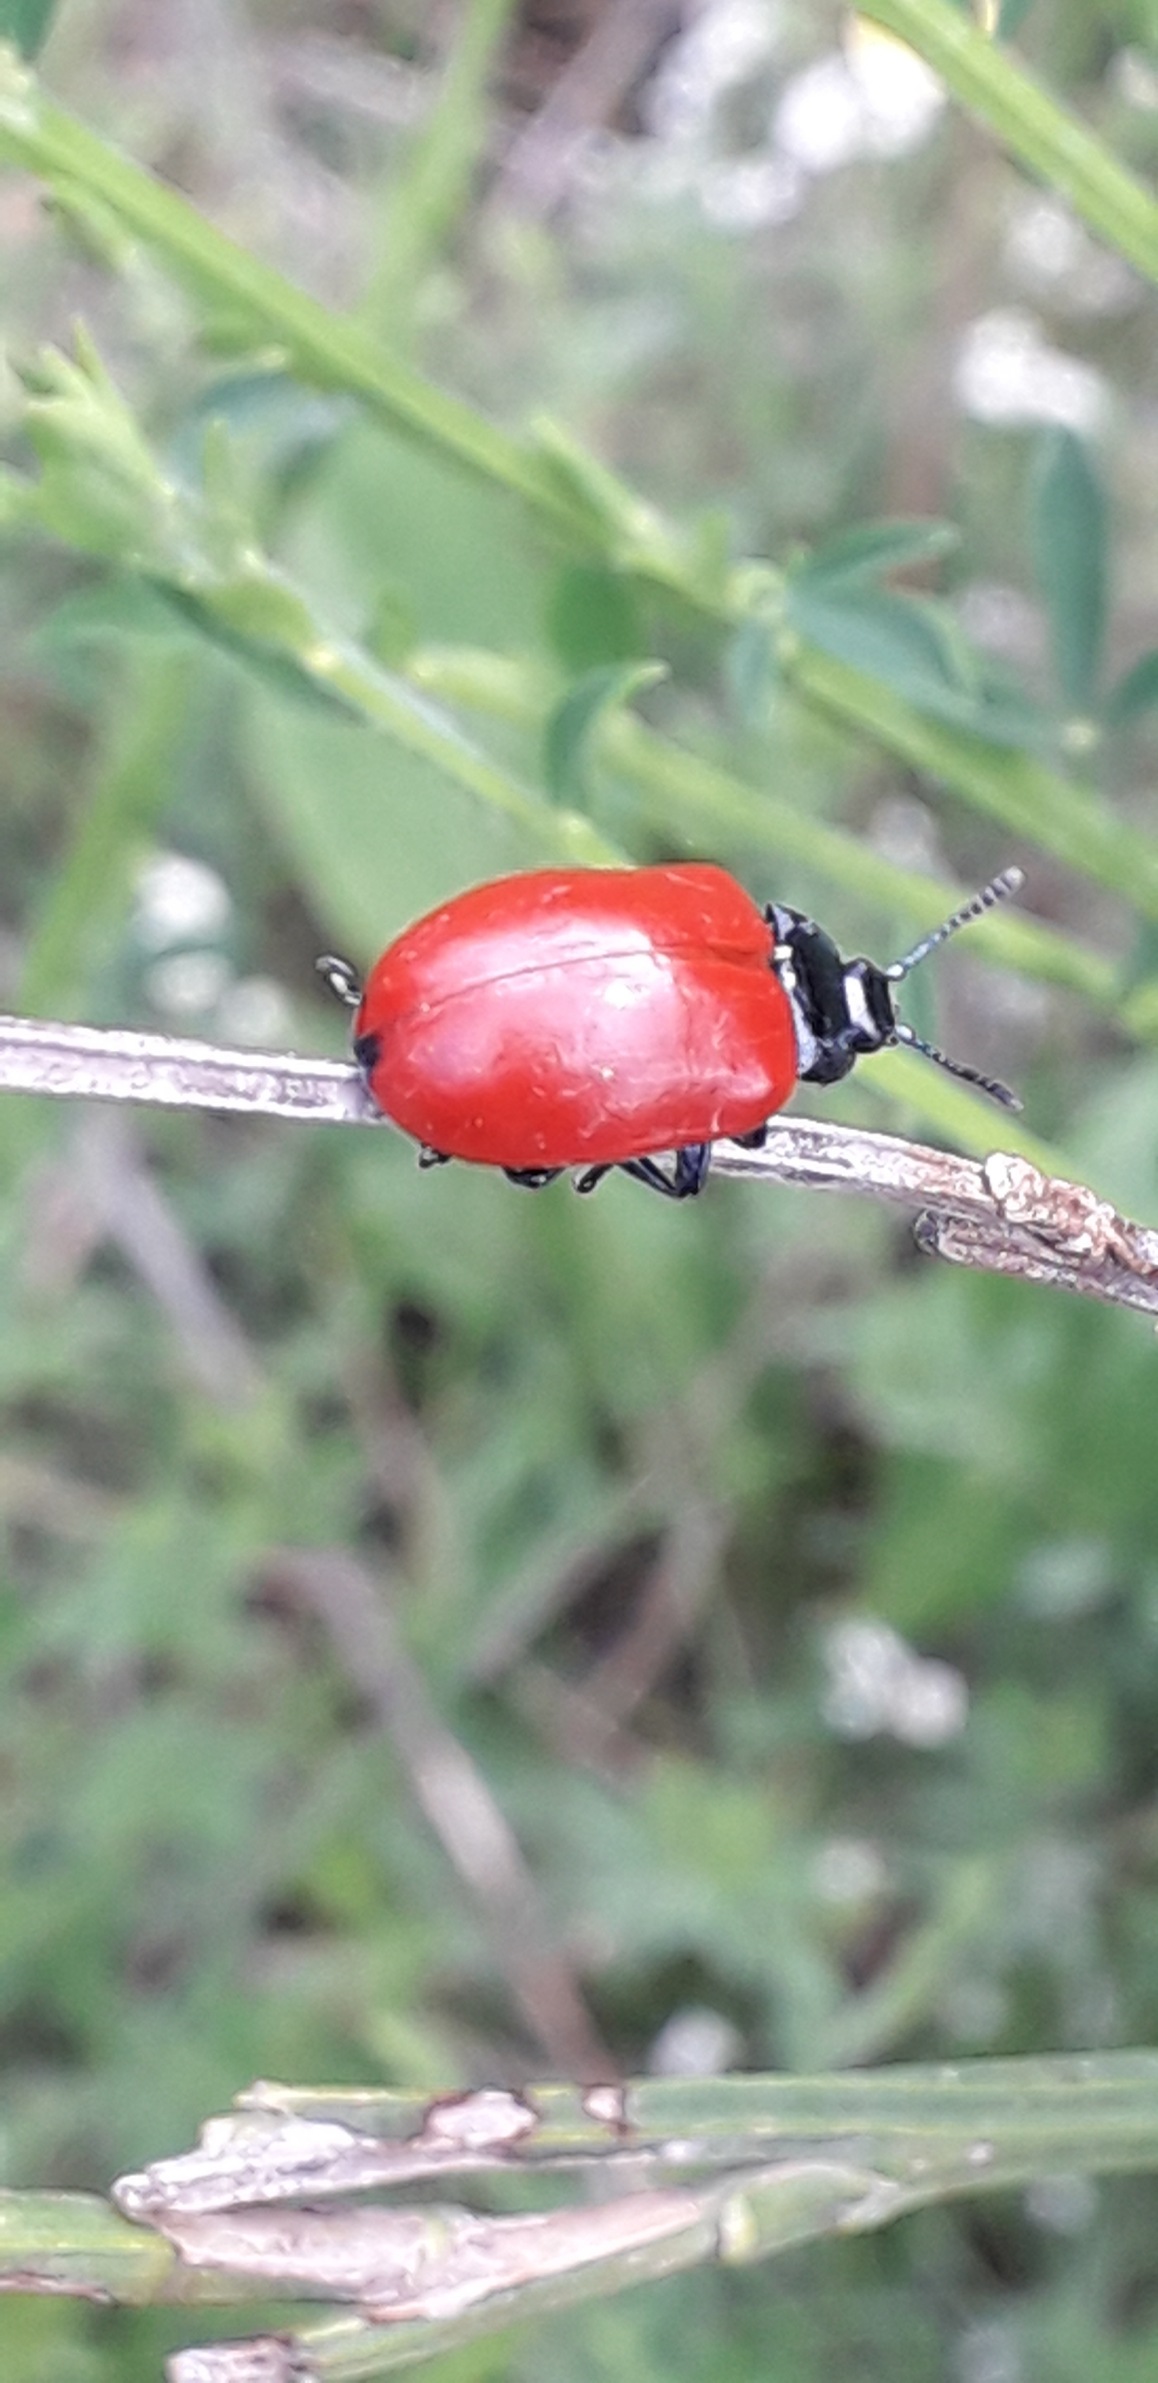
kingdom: Animalia
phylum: Arthropoda
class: Insecta
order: Coleoptera
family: Chrysomelidae
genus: Chrysomela
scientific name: Chrysomela populi
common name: Poppelbladbille
